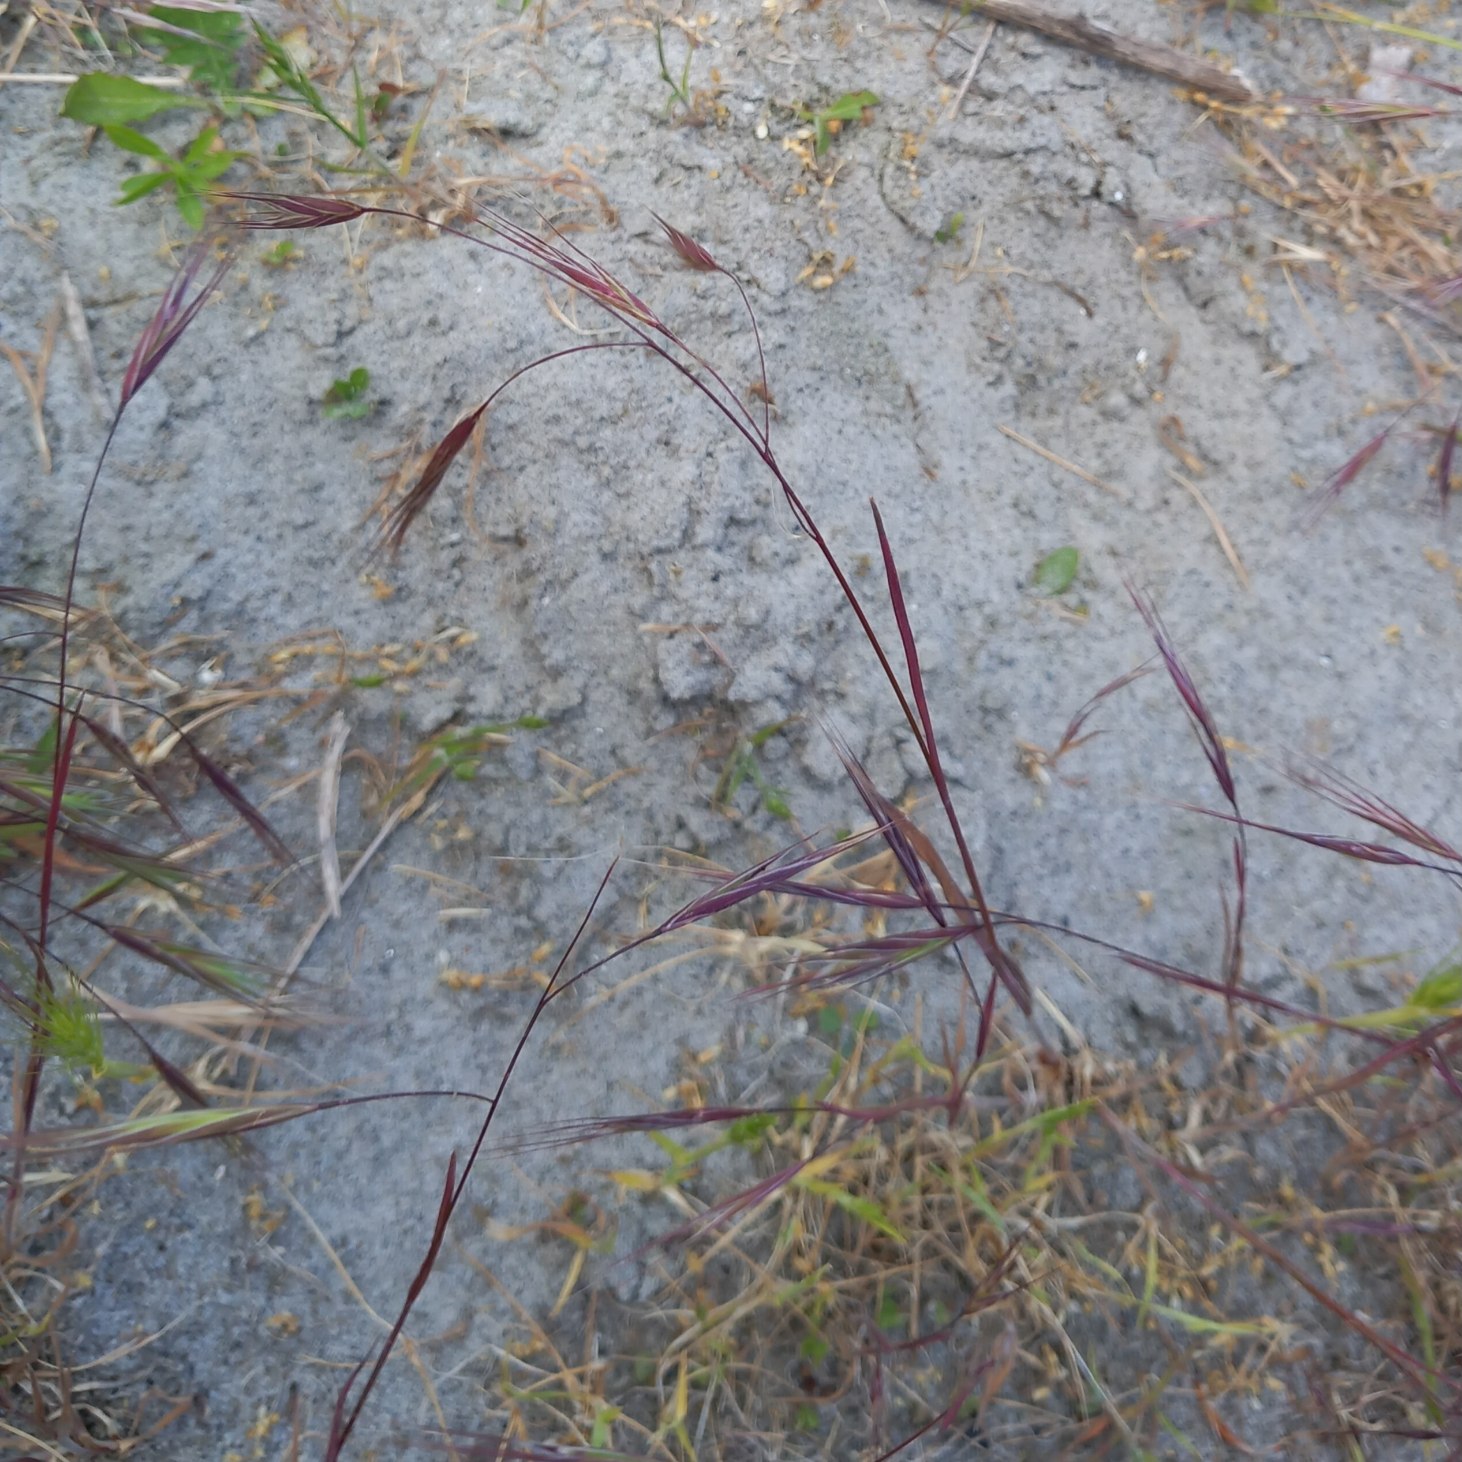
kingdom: Plantae
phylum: Tracheophyta
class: Liliopsida
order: Poales
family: Poaceae
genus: Bromus
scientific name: Bromus sterilis
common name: Gold hejre
